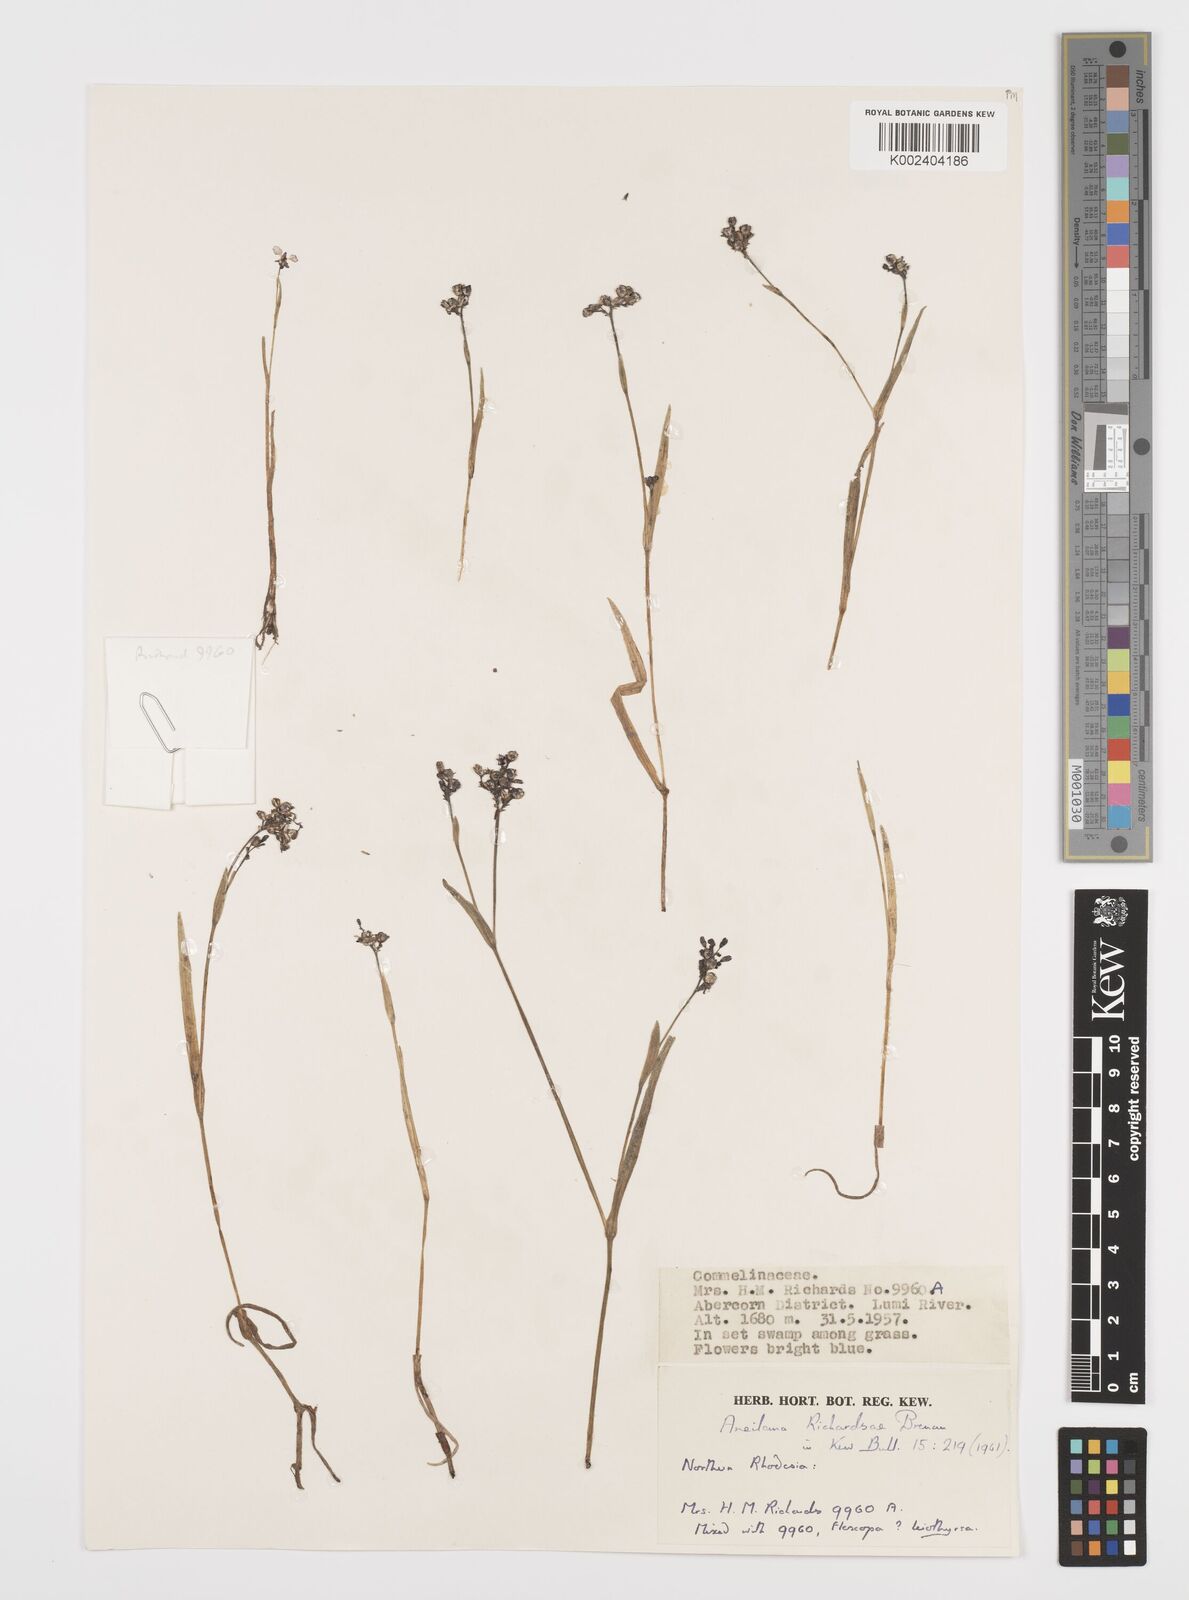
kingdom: Plantae
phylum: Tracheophyta
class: Liliopsida
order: Commelinales
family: Commelinaceae
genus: Aneilema
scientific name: Aneilema richardsiae
